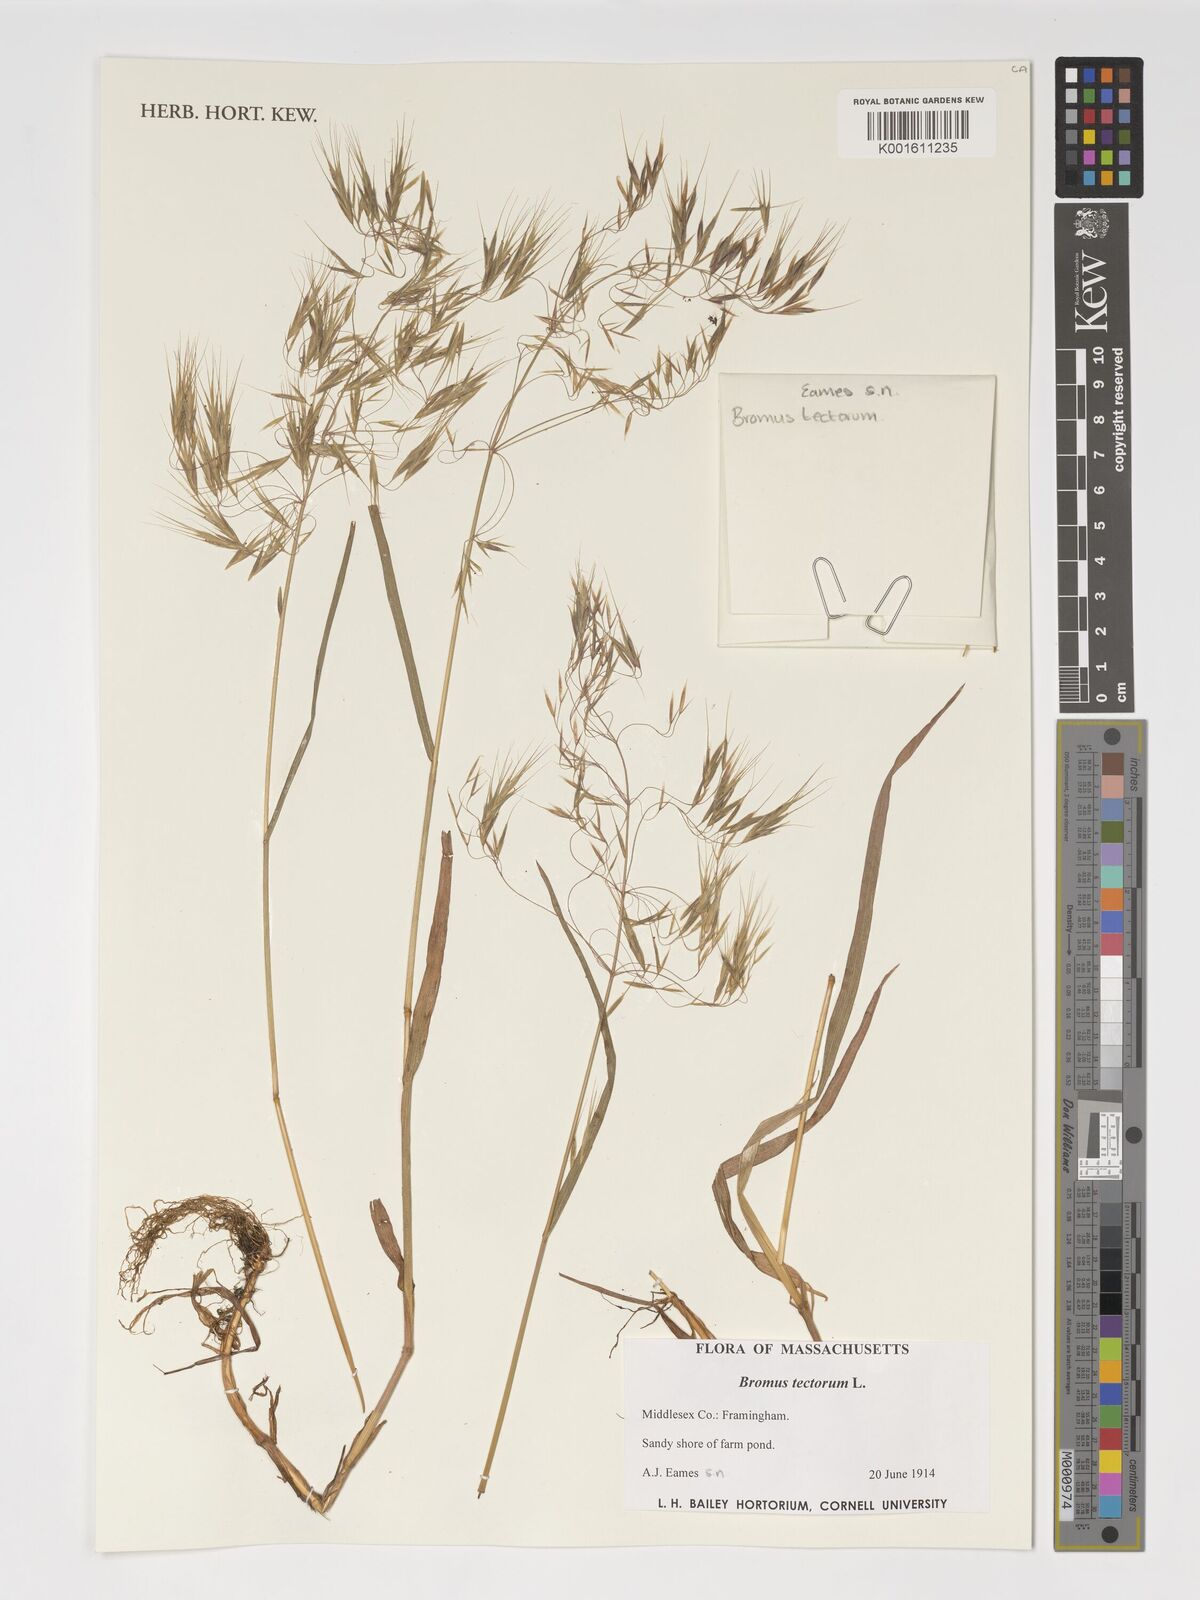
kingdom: Plantae
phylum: Tracheophyta
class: Liliopsida
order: Poales
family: Poaceae
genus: Bromus
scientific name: Bromus tectorum
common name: Cheatgrass
